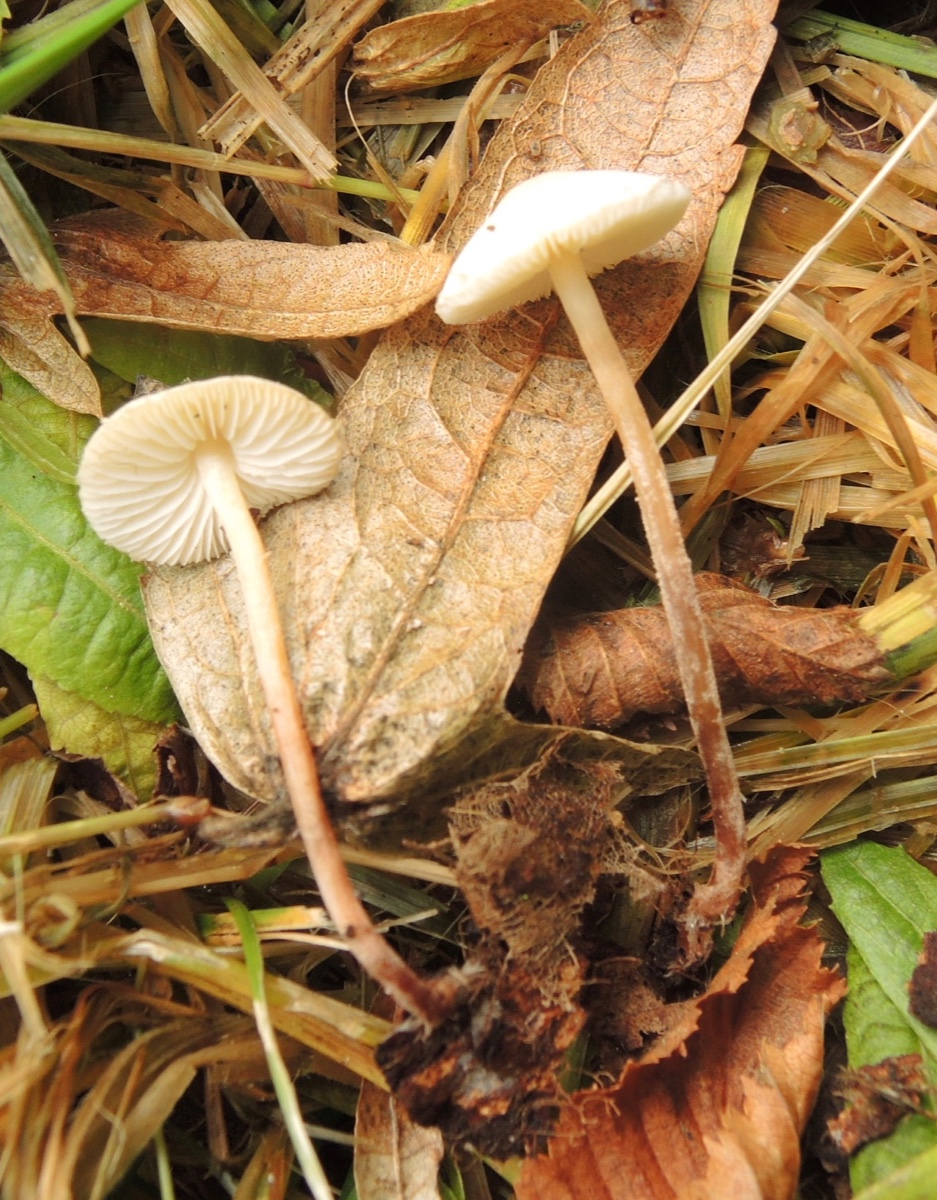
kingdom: Fungi
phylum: Basidiomycota
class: Agaricomycetes
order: Agaricales
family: Agaricaceae
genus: Cystolepiota
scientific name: Cystolepiota seminuda
